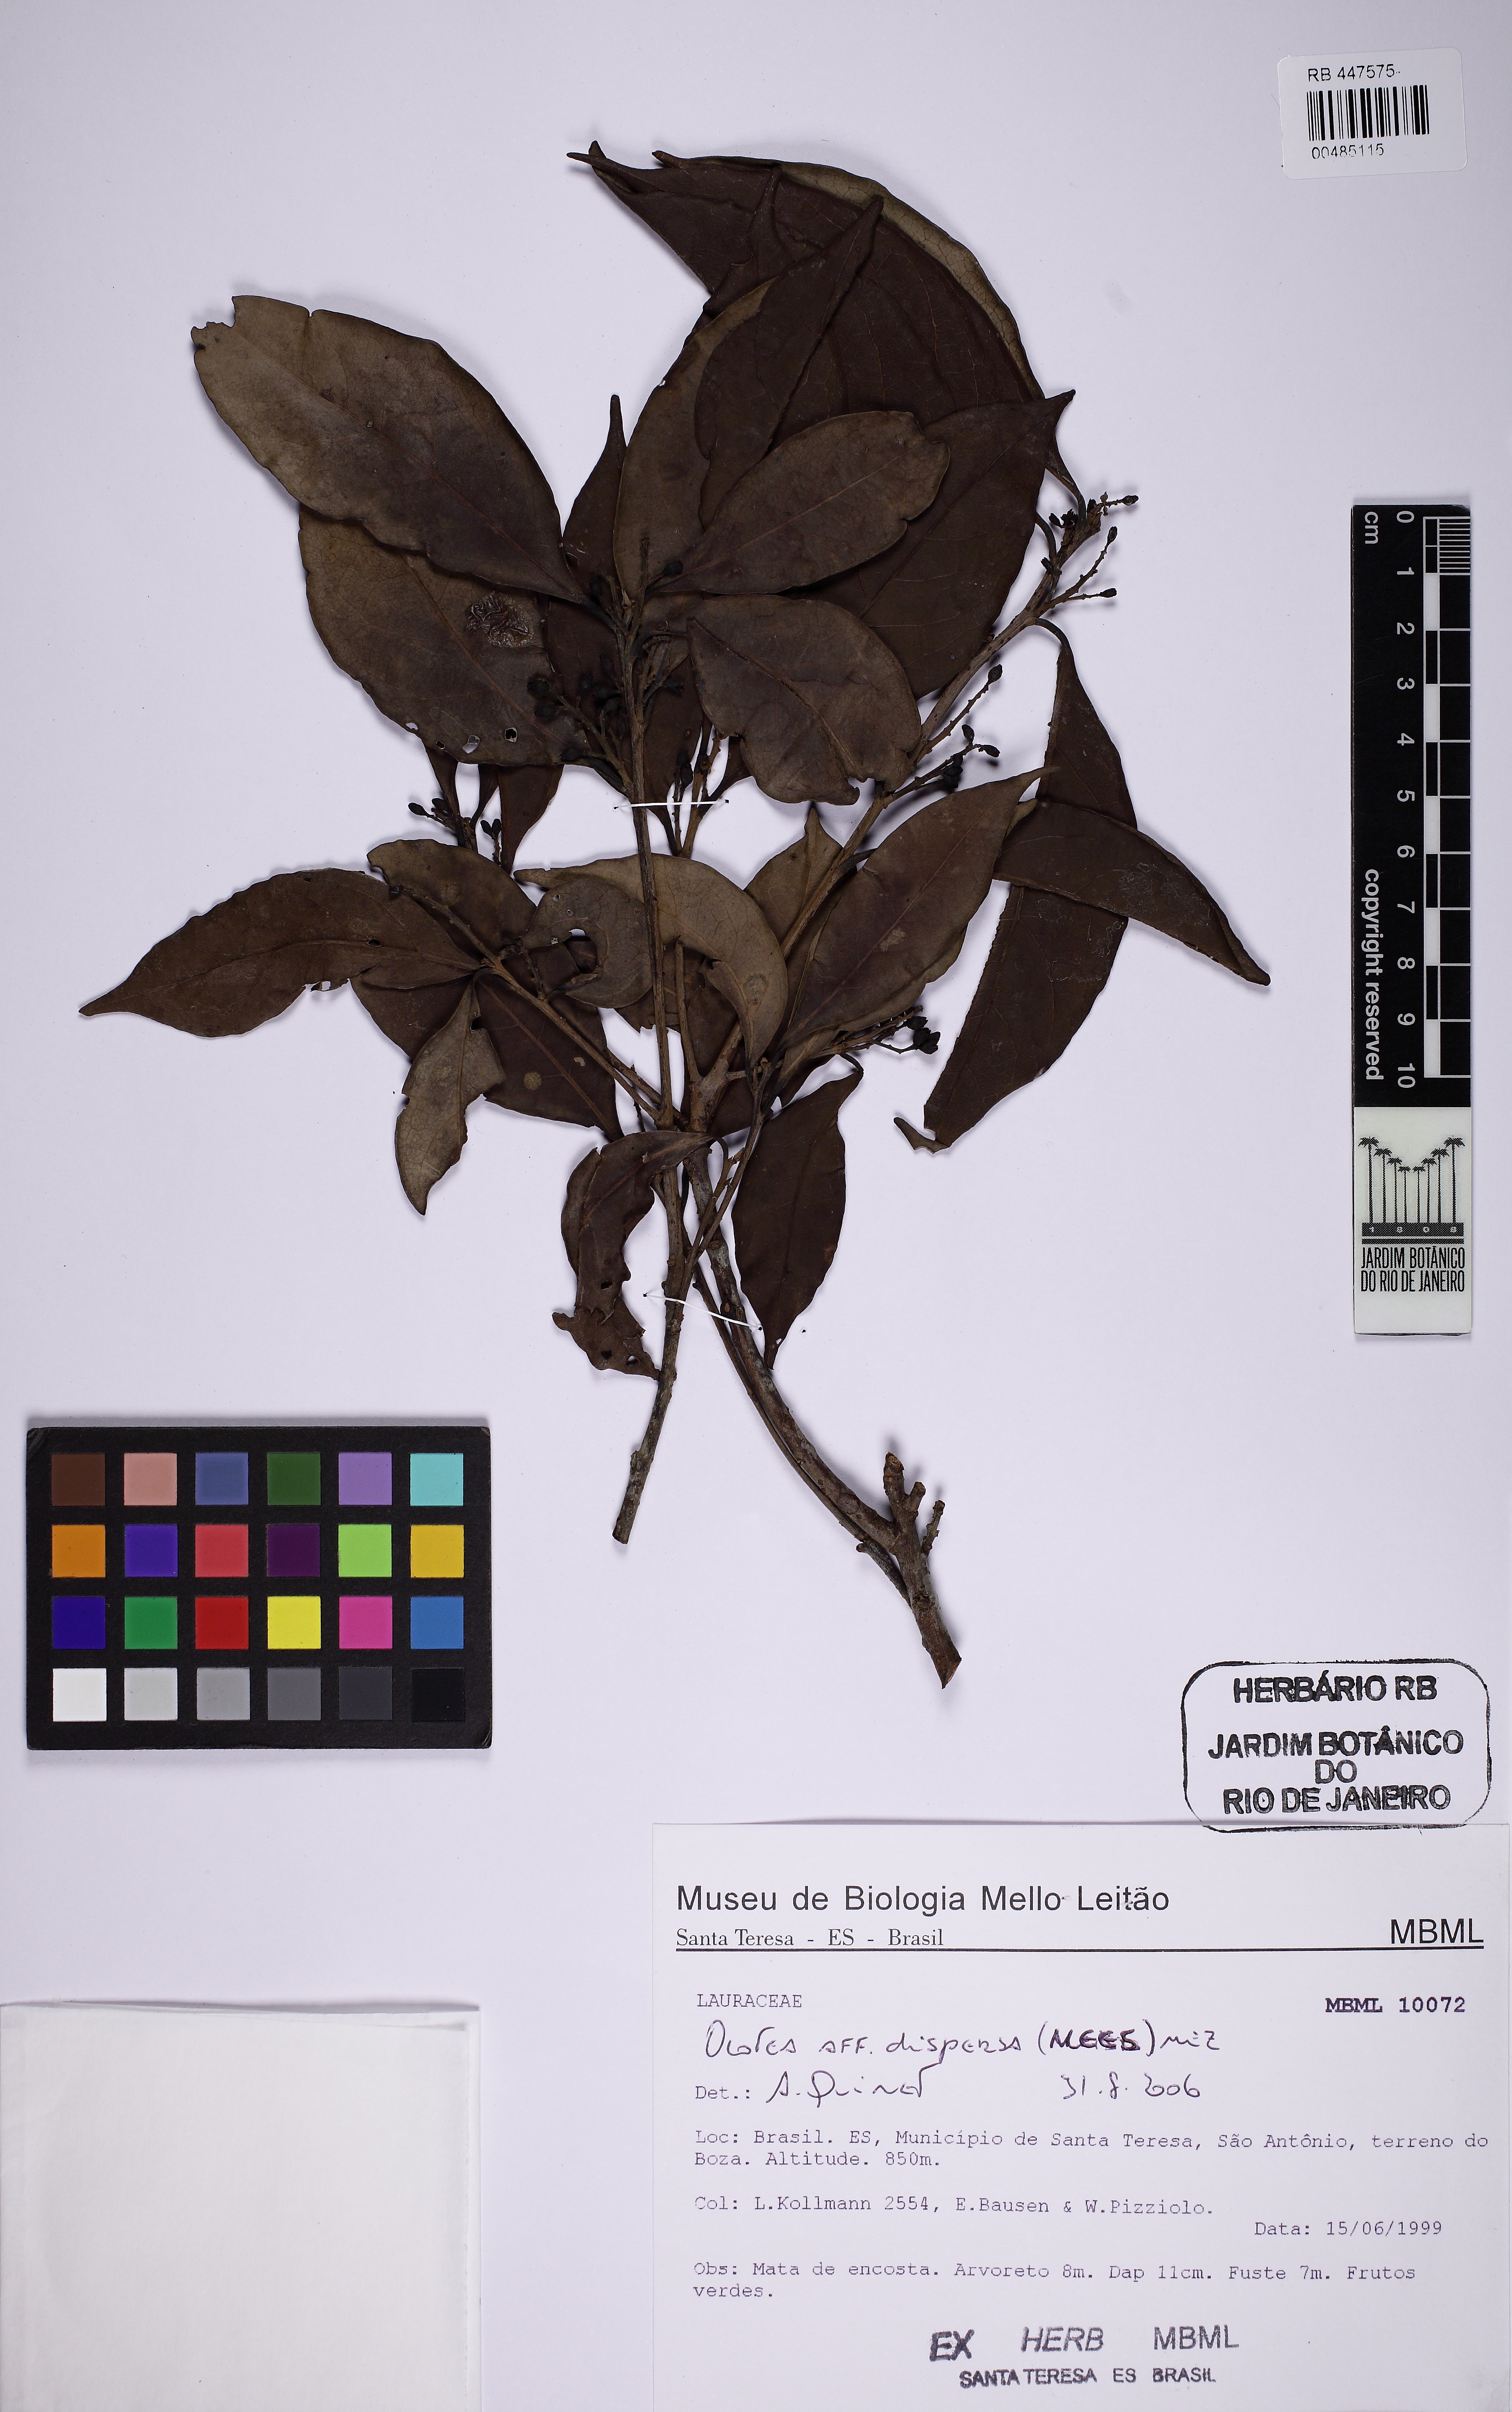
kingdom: Plantae
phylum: Tracheophyta
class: Magnoliopsida
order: Laurales
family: Lauraceae
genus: Ocotea
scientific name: Ocotea dispersa
